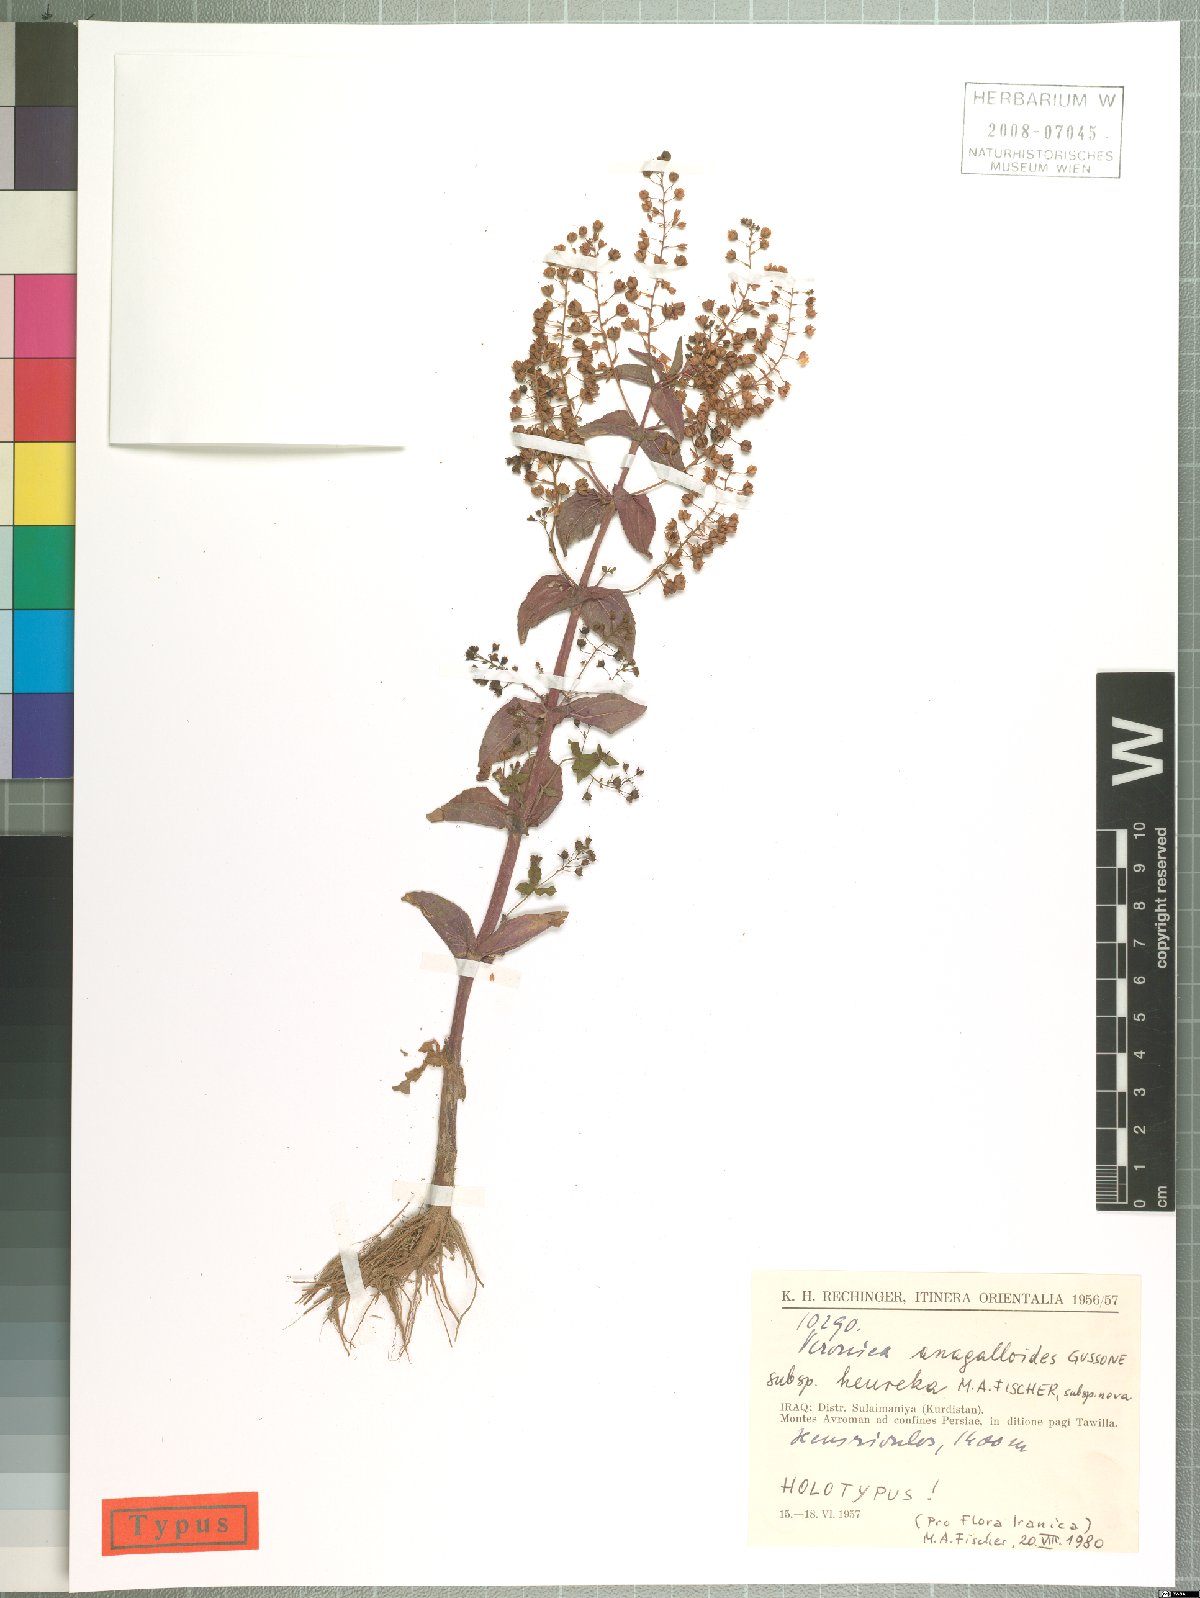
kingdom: Plantae
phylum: Tracheophyta
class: Magnoliopsida
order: Lamiales
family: Plantaginaceae
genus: Veronica
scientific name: Veronica heureka
